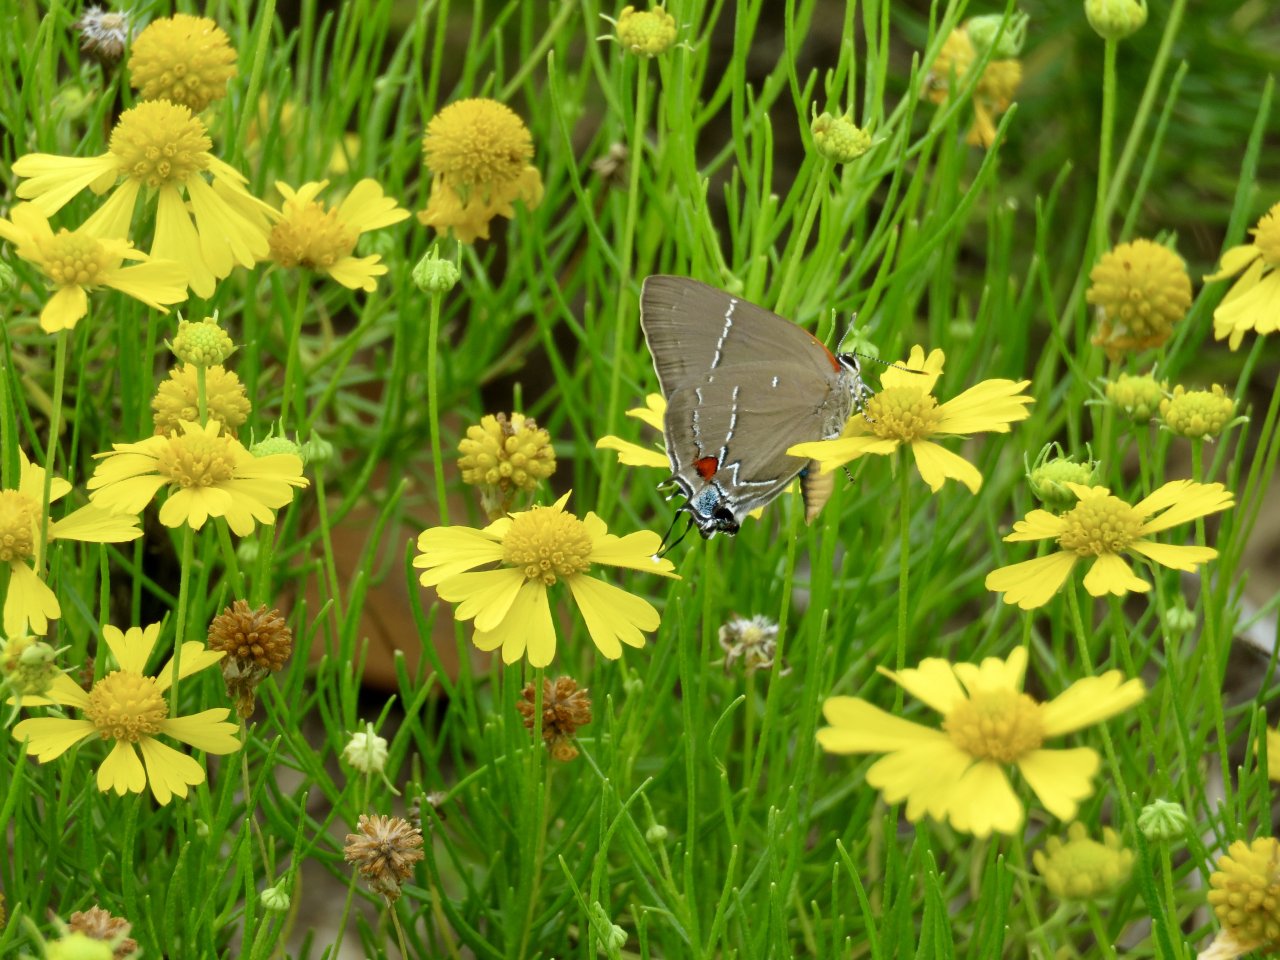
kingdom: Animalia
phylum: Arthropoda
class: Insecta
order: Lepidoptera
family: Lycaenidae
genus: Parrhasius
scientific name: Parrhasius m-album
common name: White-m Hairstreak
